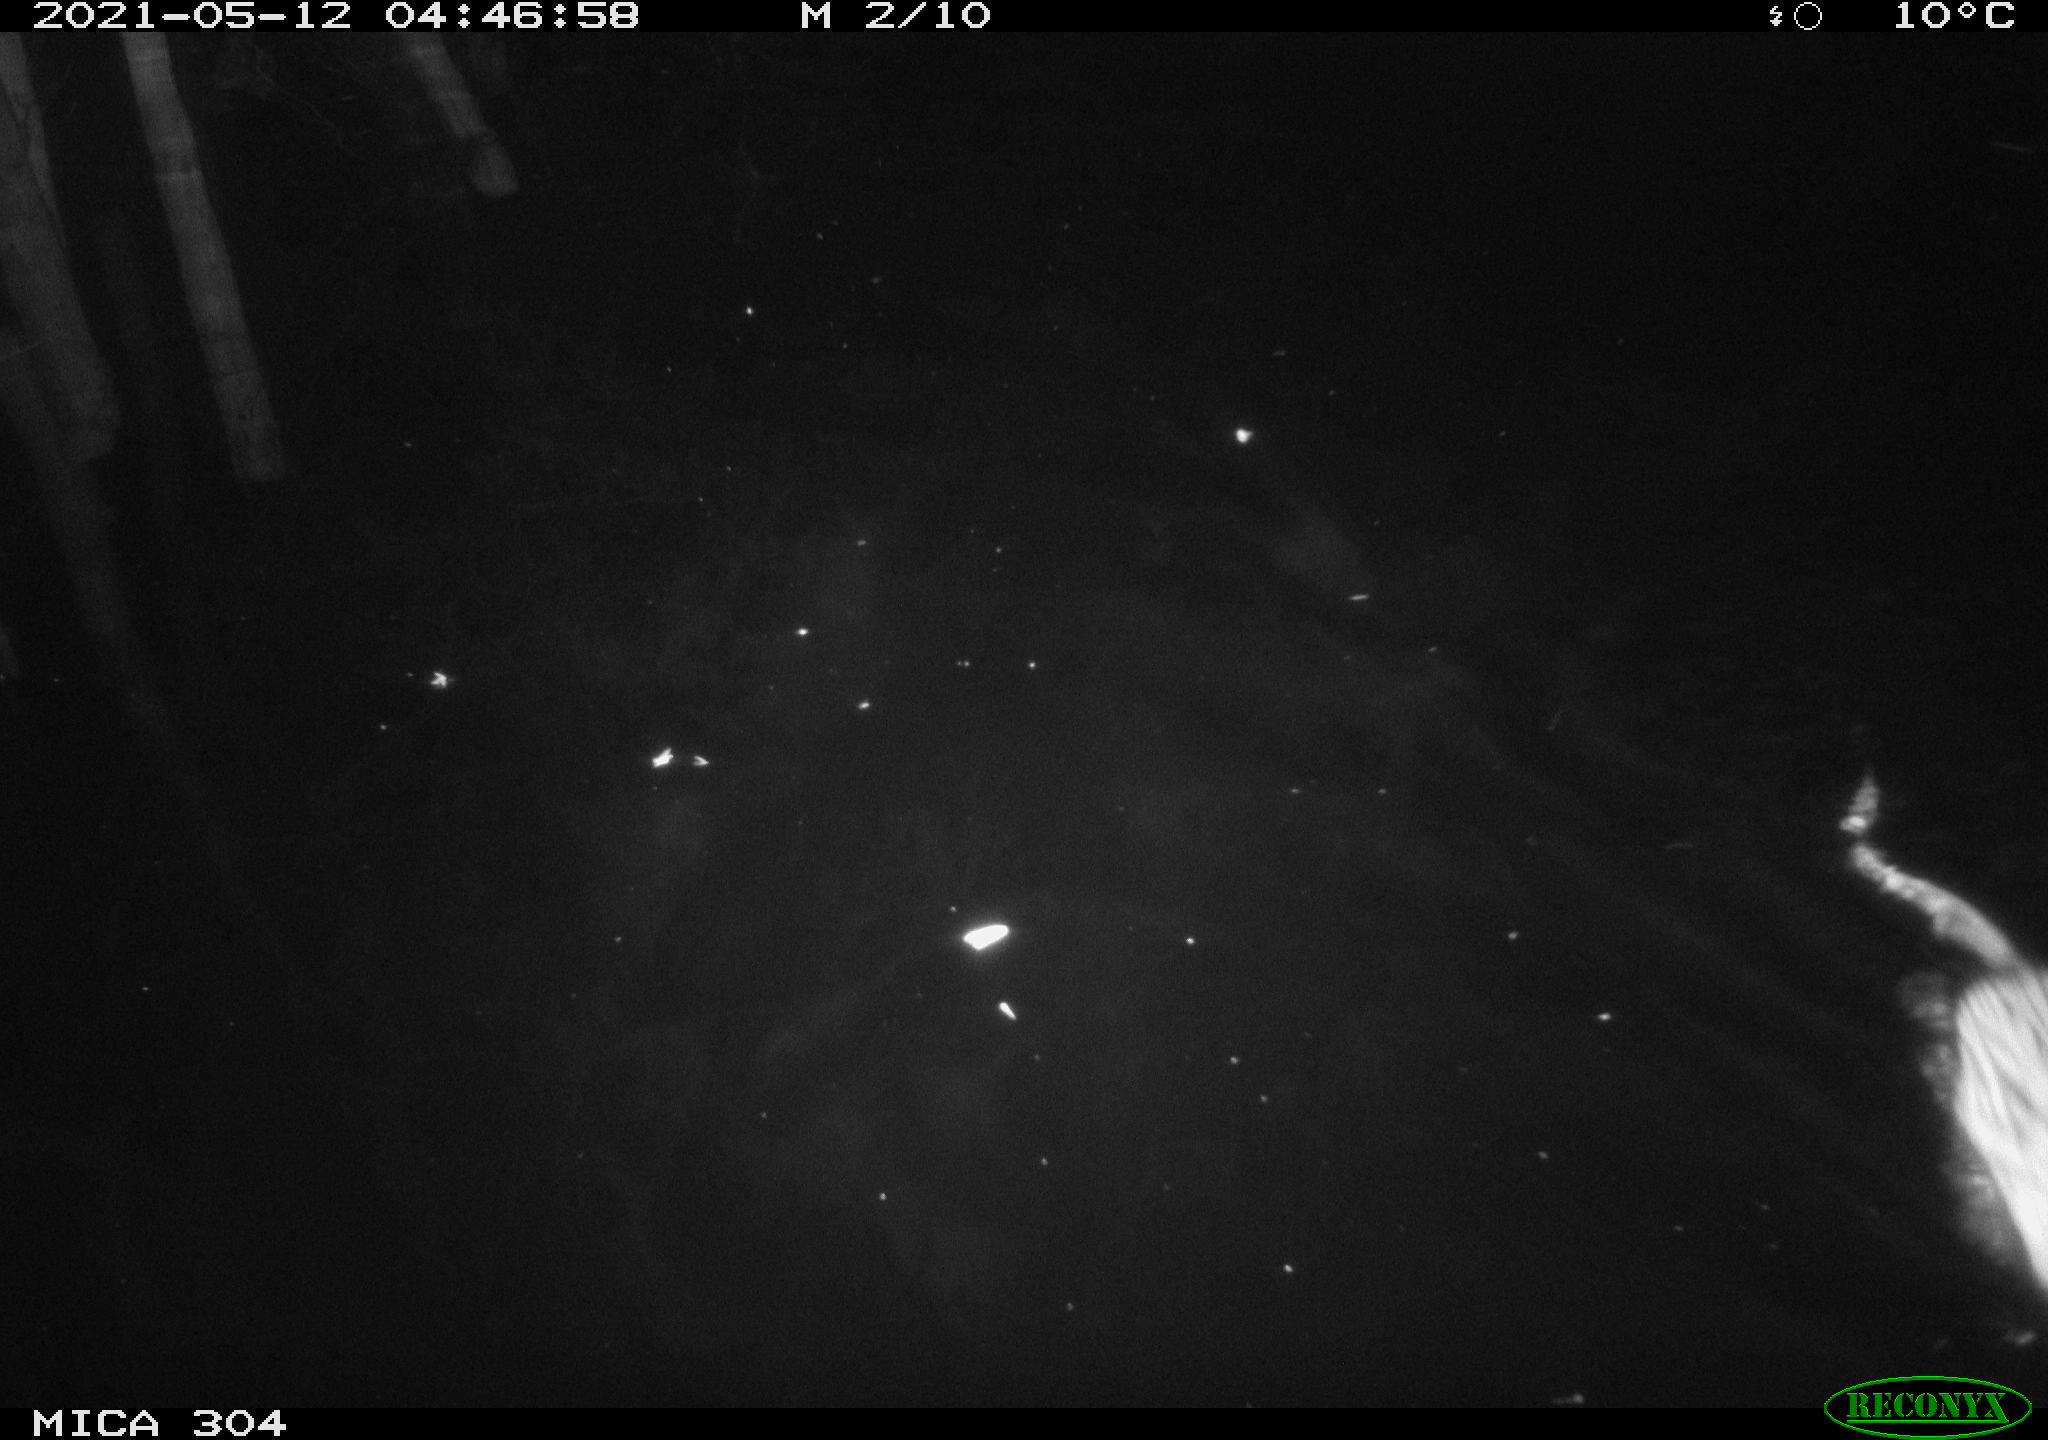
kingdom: Animalia
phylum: Chordata
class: Mammalia
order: Rodentia
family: Cricetidae
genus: Ondatra
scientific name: Ondatra zibethicus
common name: Muskrat
